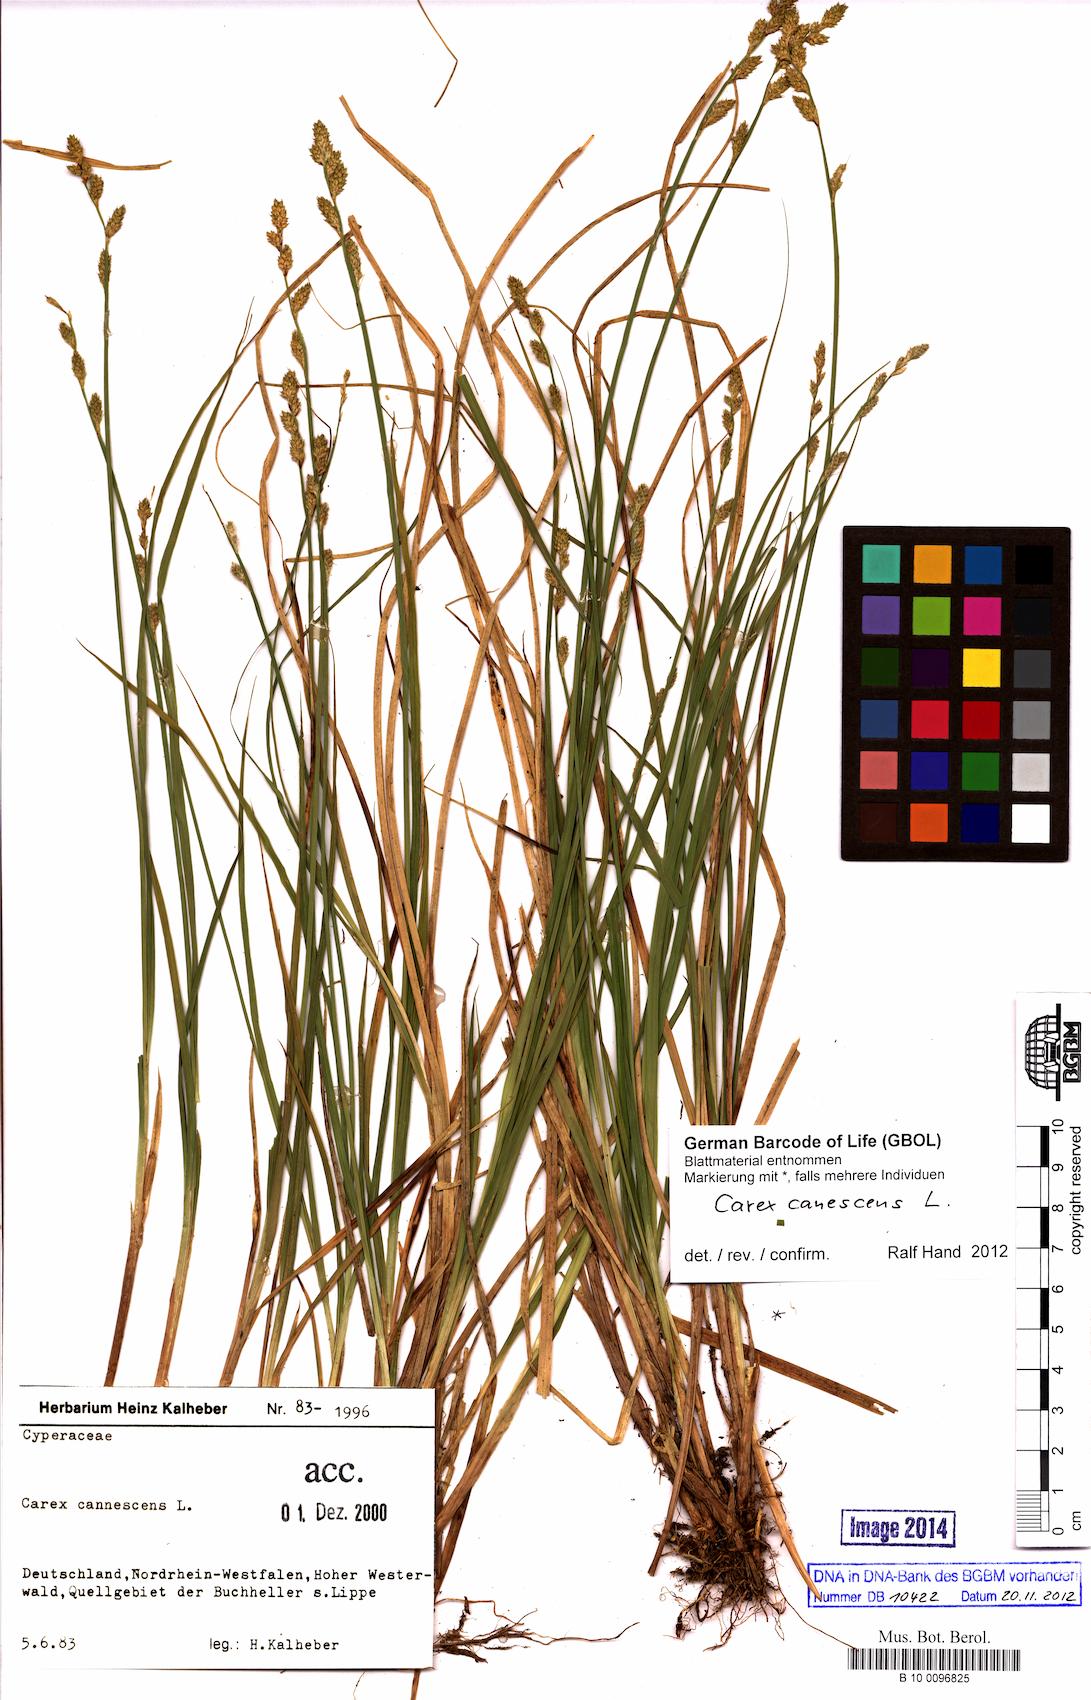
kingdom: Plantae
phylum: Tracheophyta
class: Liliopsida
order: Poales
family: Cyperaceae
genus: Carex
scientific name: Carex canescens
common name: White sedge
